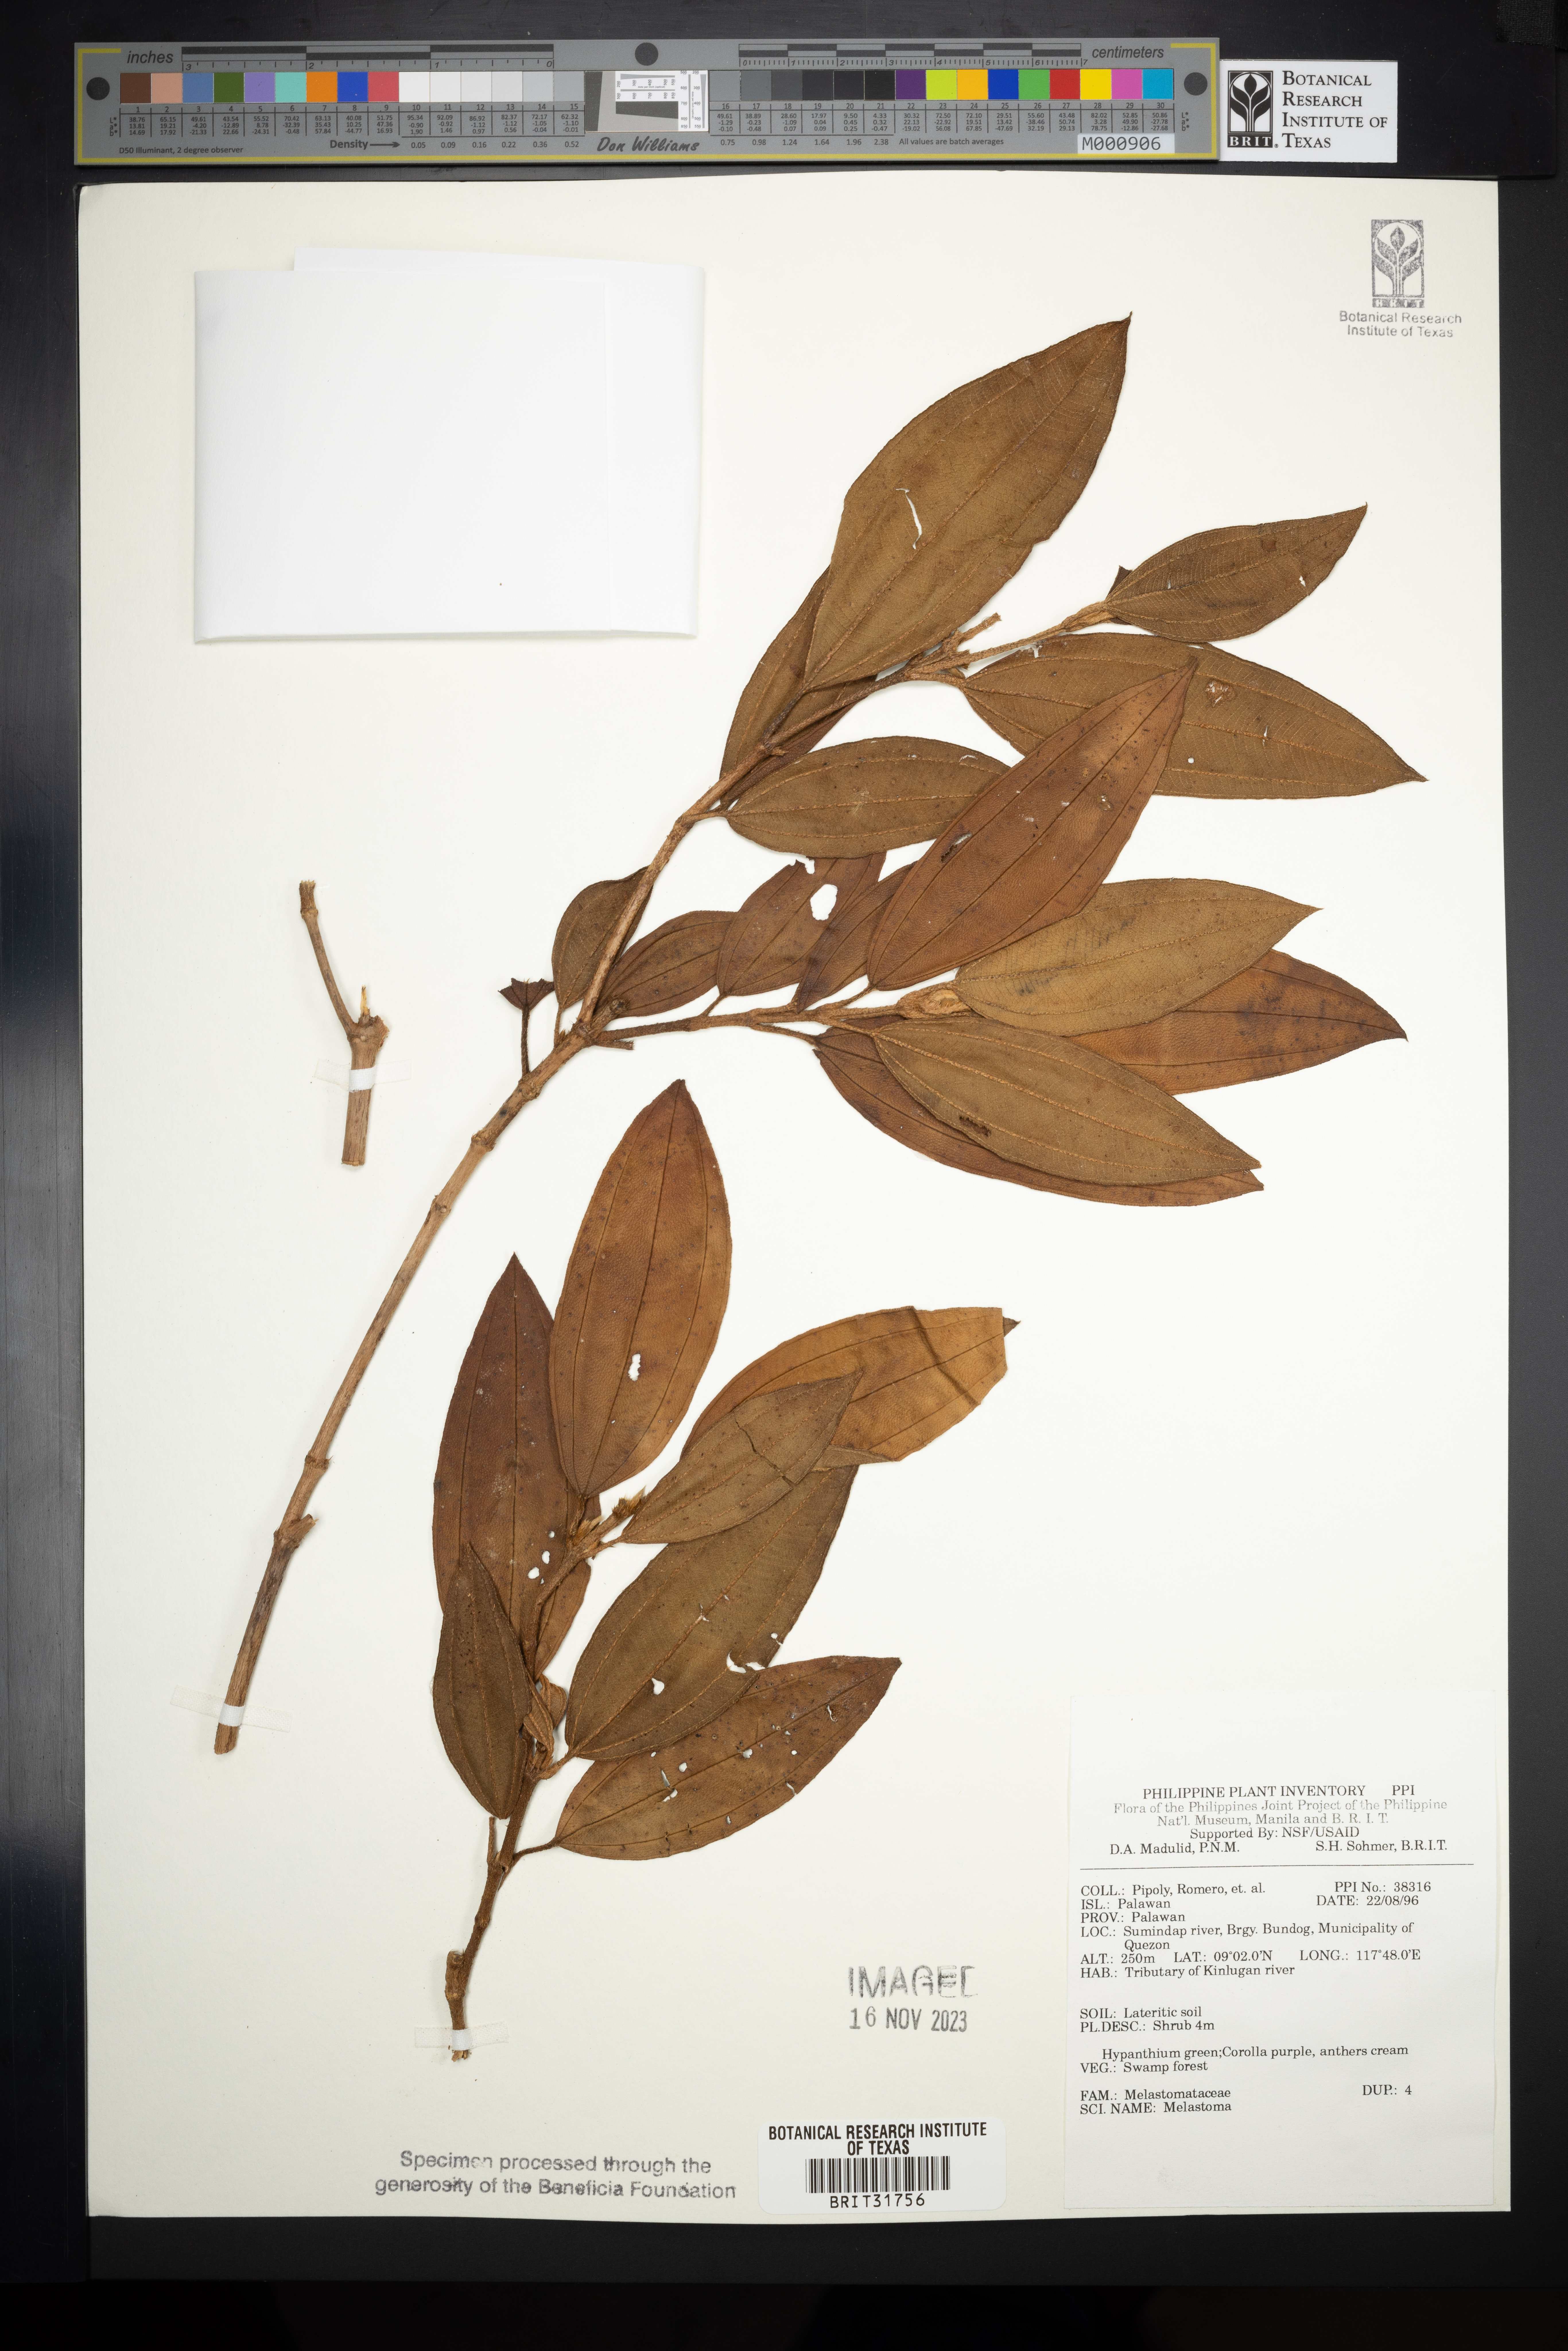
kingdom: Plantae
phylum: Tracheophyta
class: Magnoliopsida
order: Myrtales
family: Melastomataceae
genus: Melastoma
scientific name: Melastoma
